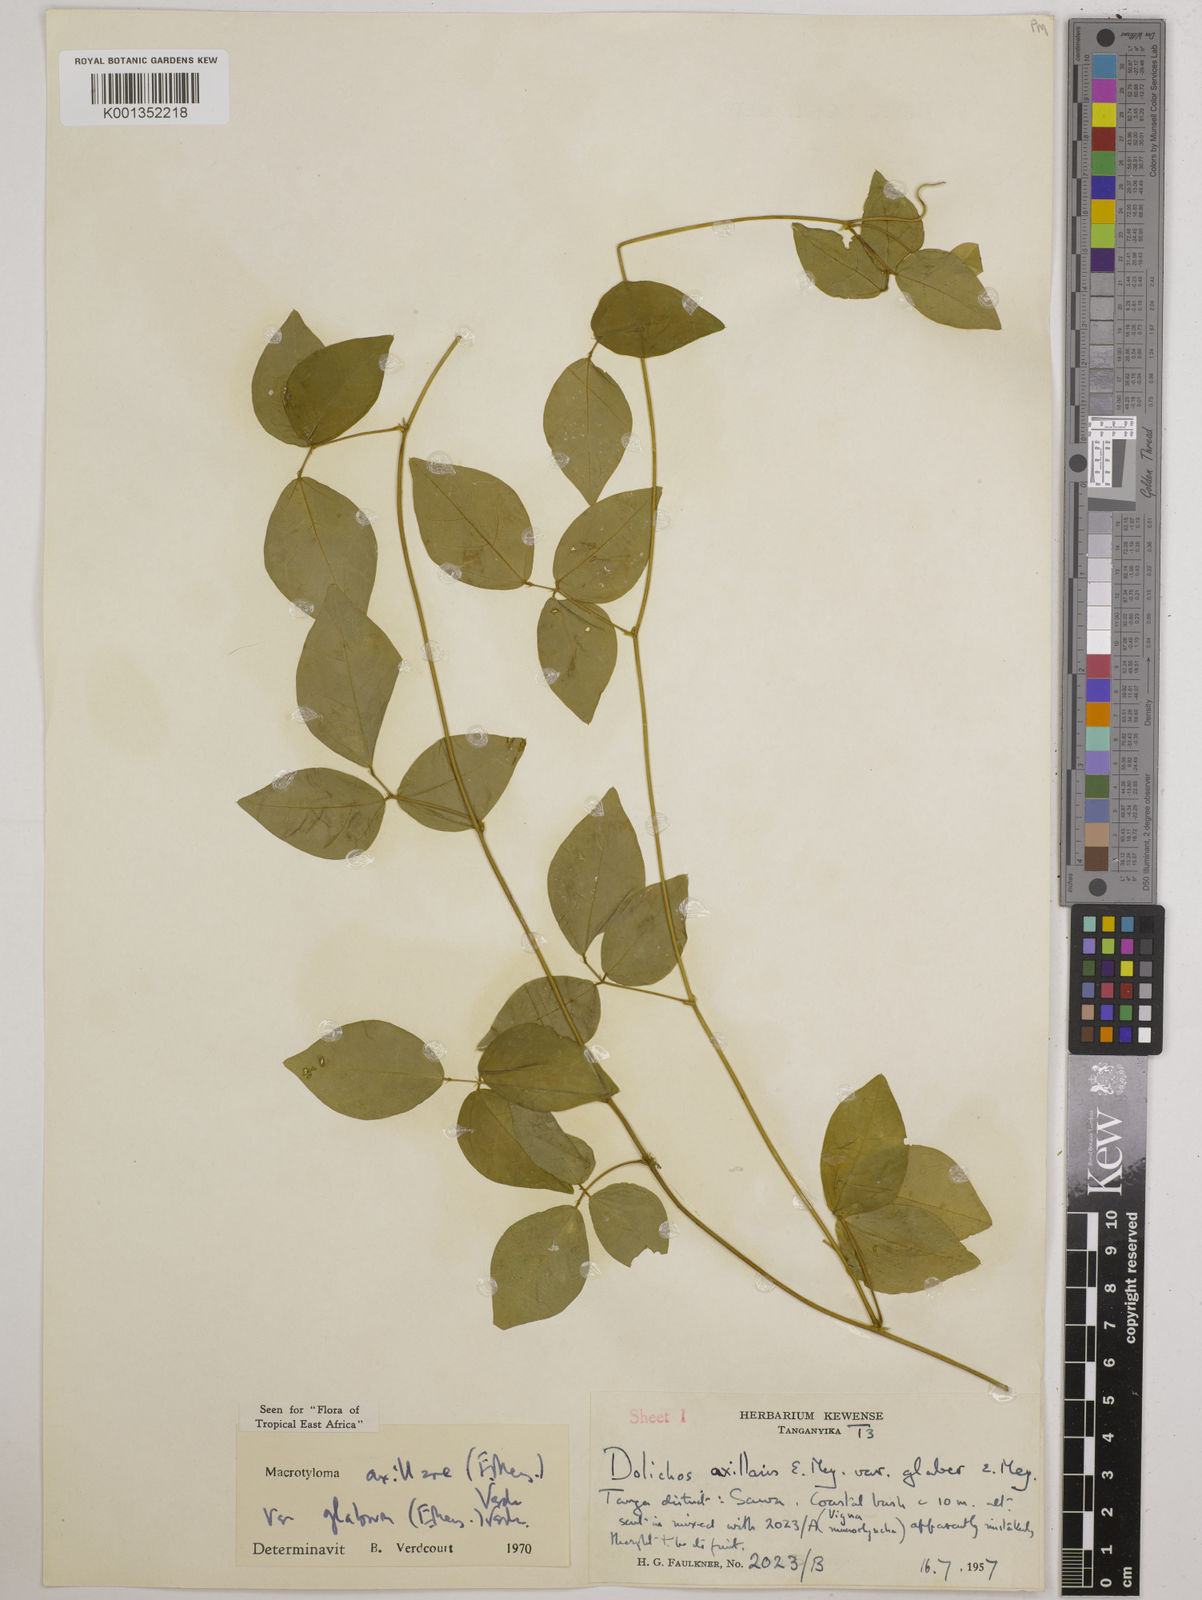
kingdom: Plantae
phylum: Tracheophyta
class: Magnoliopsida
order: Fabales
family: Fabaceae
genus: Macrotyloma
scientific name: Macrotyloma
